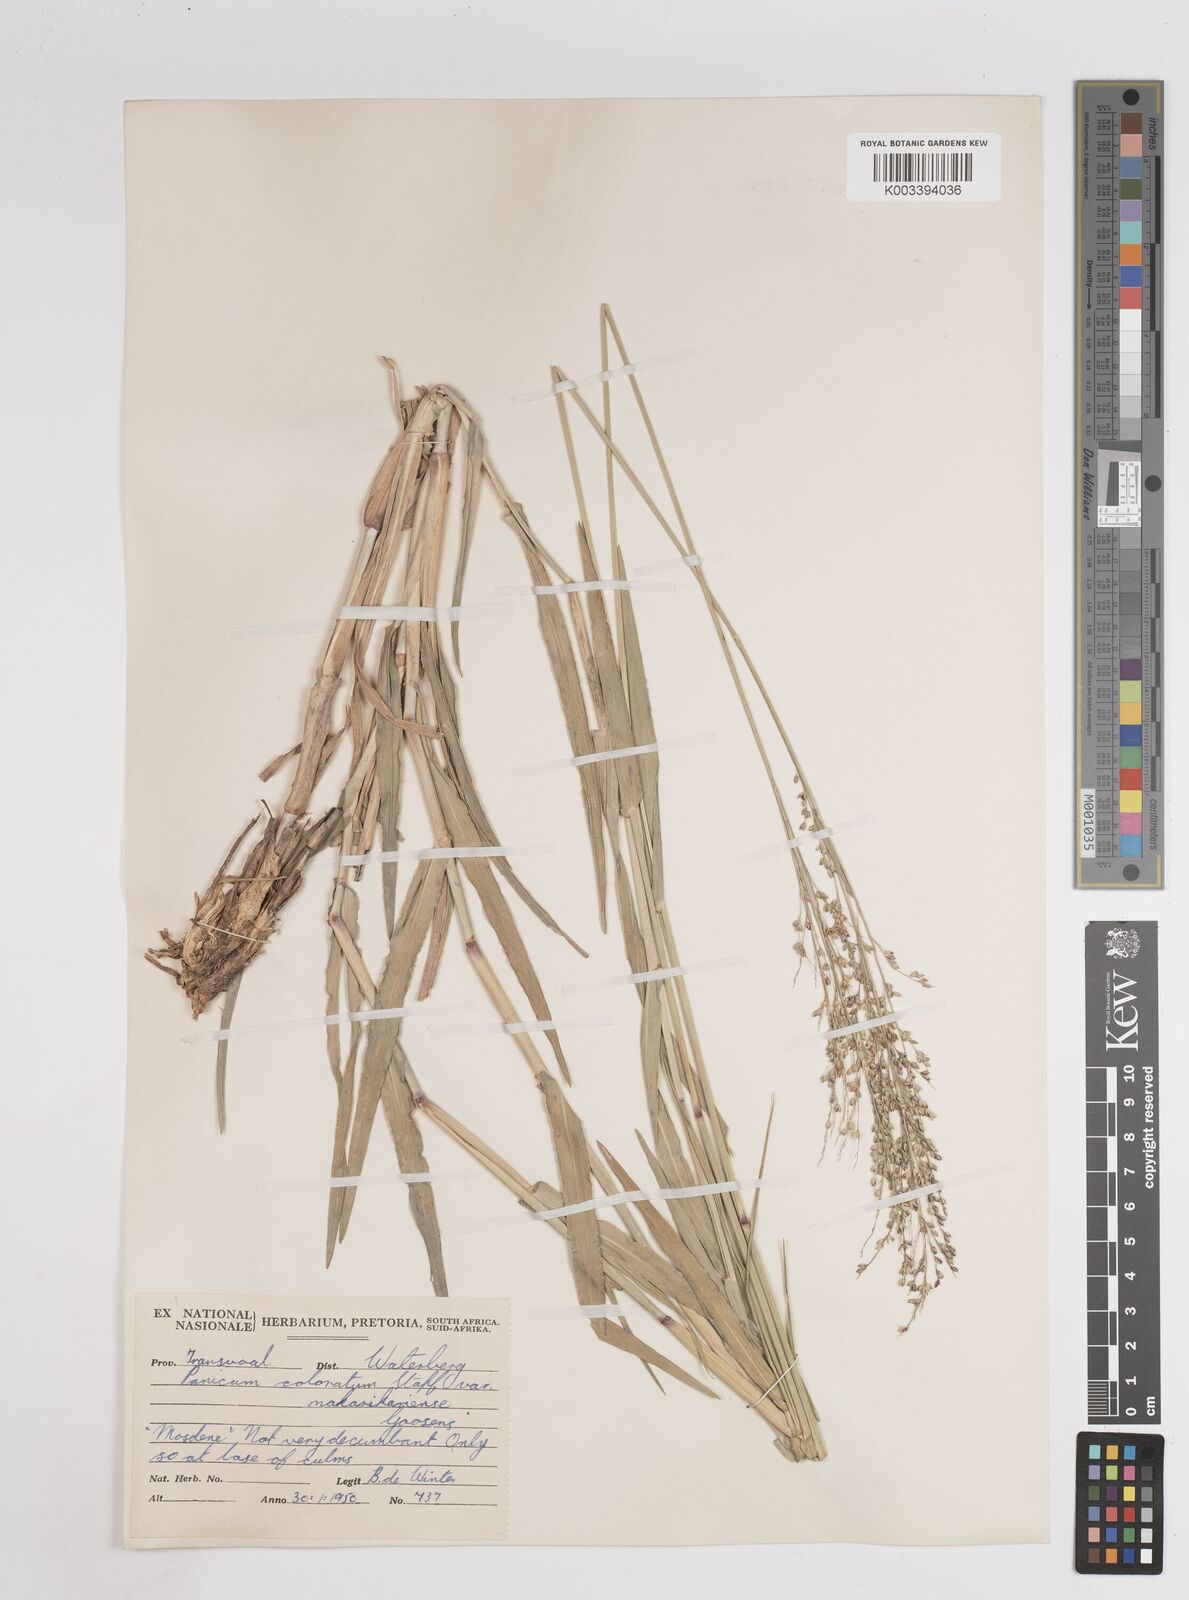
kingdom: Plantae
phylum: Tracheophyta
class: Liliopsida
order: Poales
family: Poaceae
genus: Panicum
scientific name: Panicum coloratum
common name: Kleingrass
